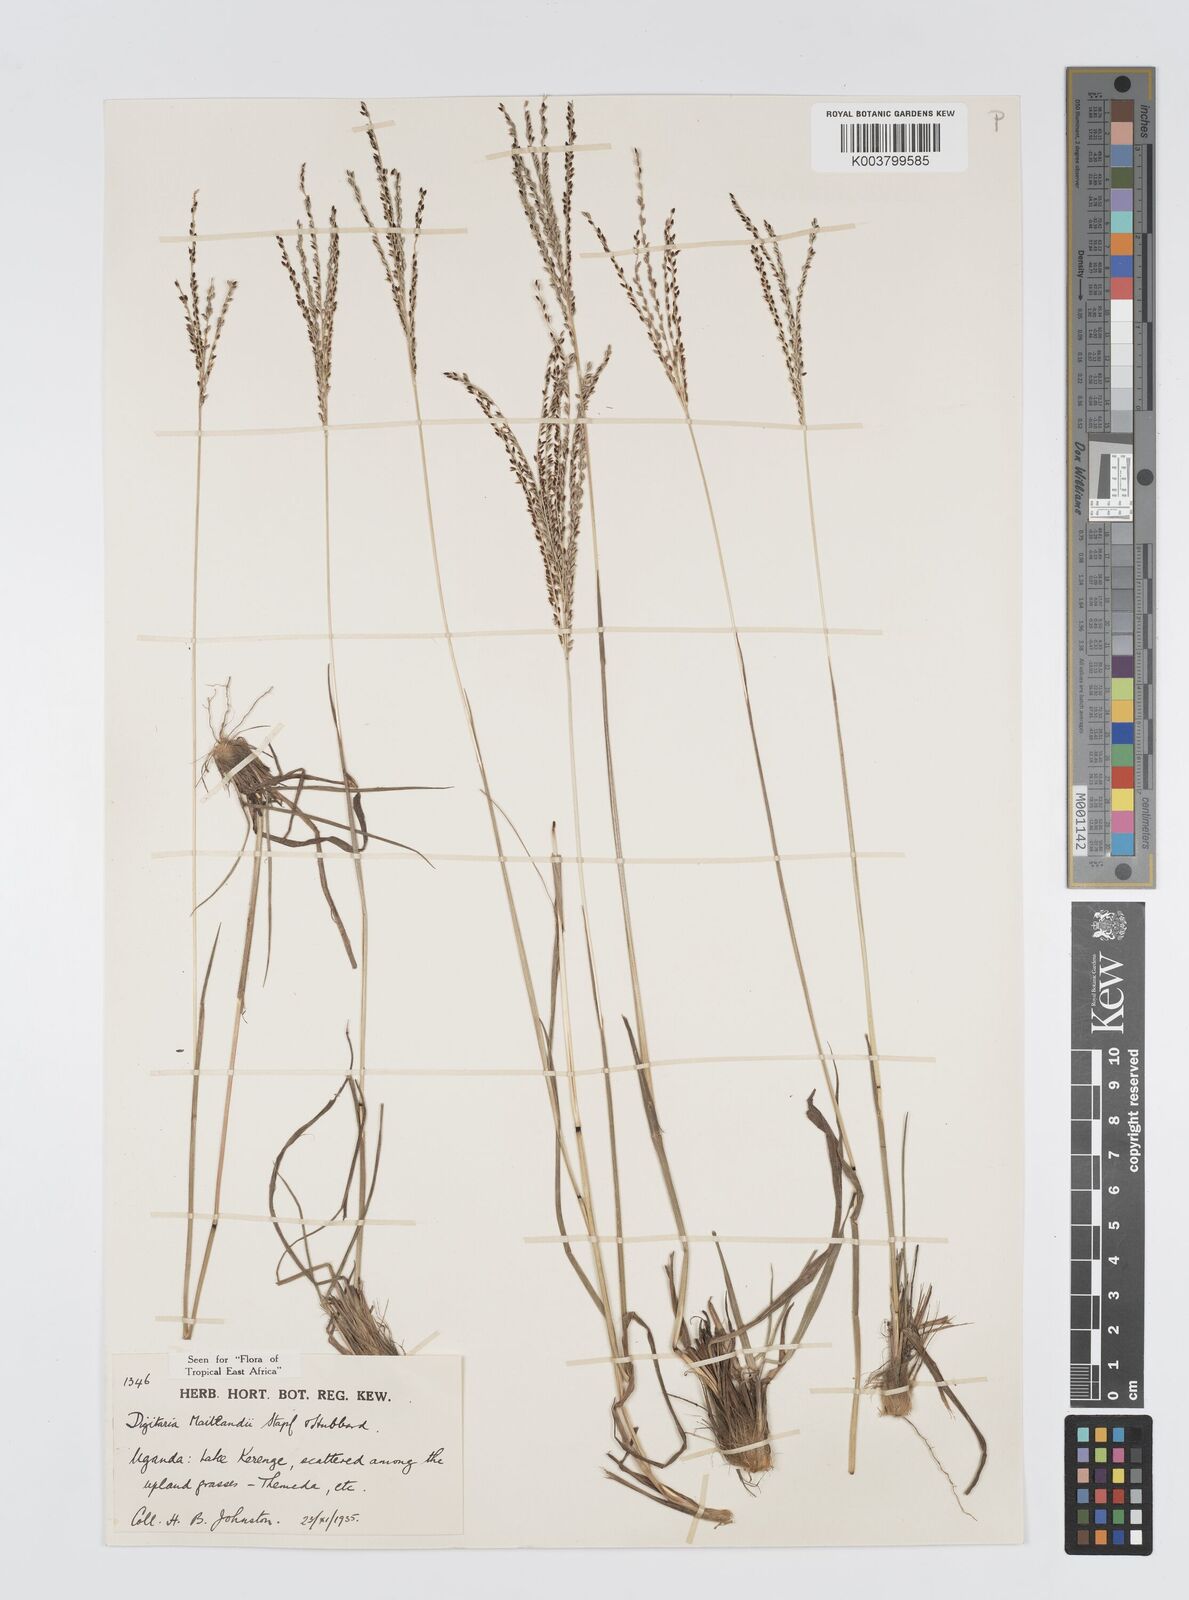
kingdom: Plantae
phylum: Tracheophyta
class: Liliopsida
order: Poales
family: Poaceae
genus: Digitaria
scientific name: Digitaria maitlandii
